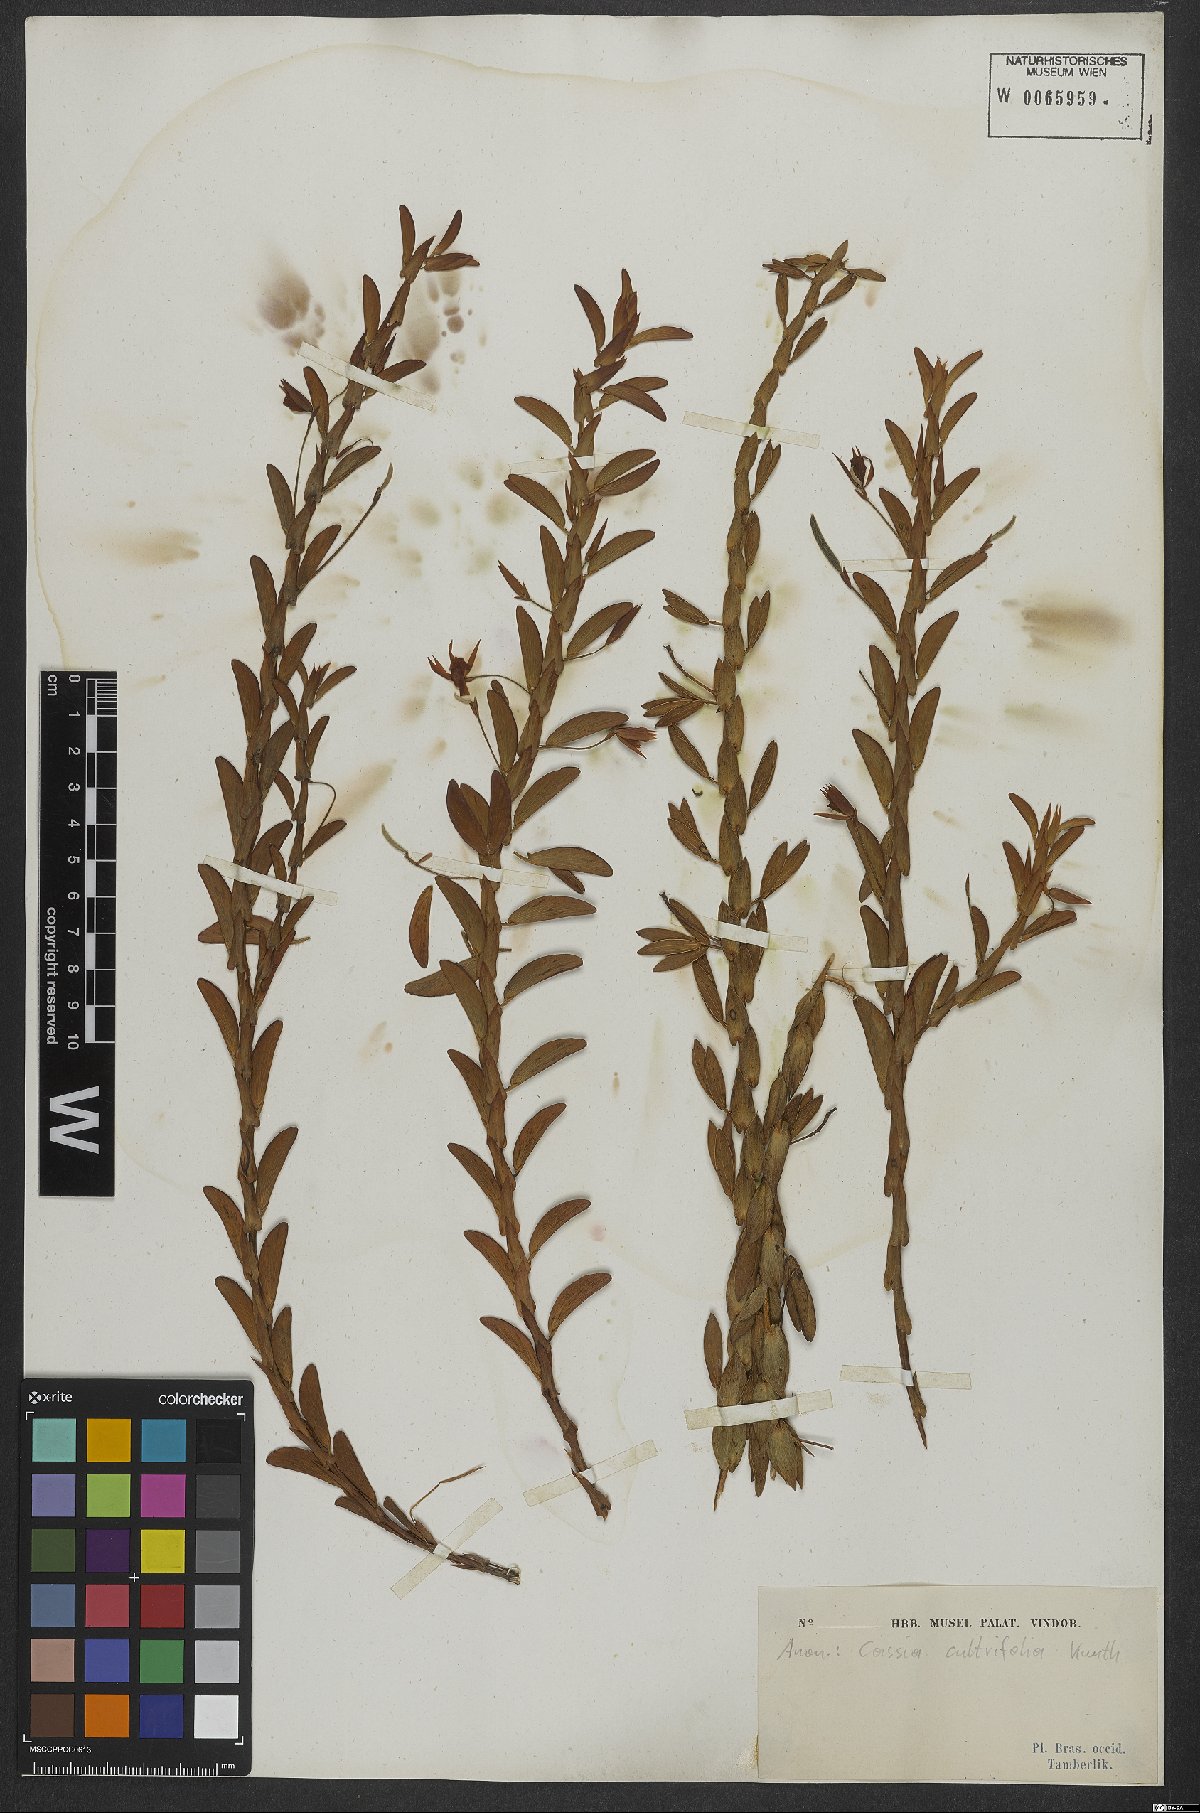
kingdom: Plantae
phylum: Tracheophyta
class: Magnoliopsida
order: Fabales
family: Fabaceae
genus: Chamaecrista
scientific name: Chamaecrista cultrifolia
